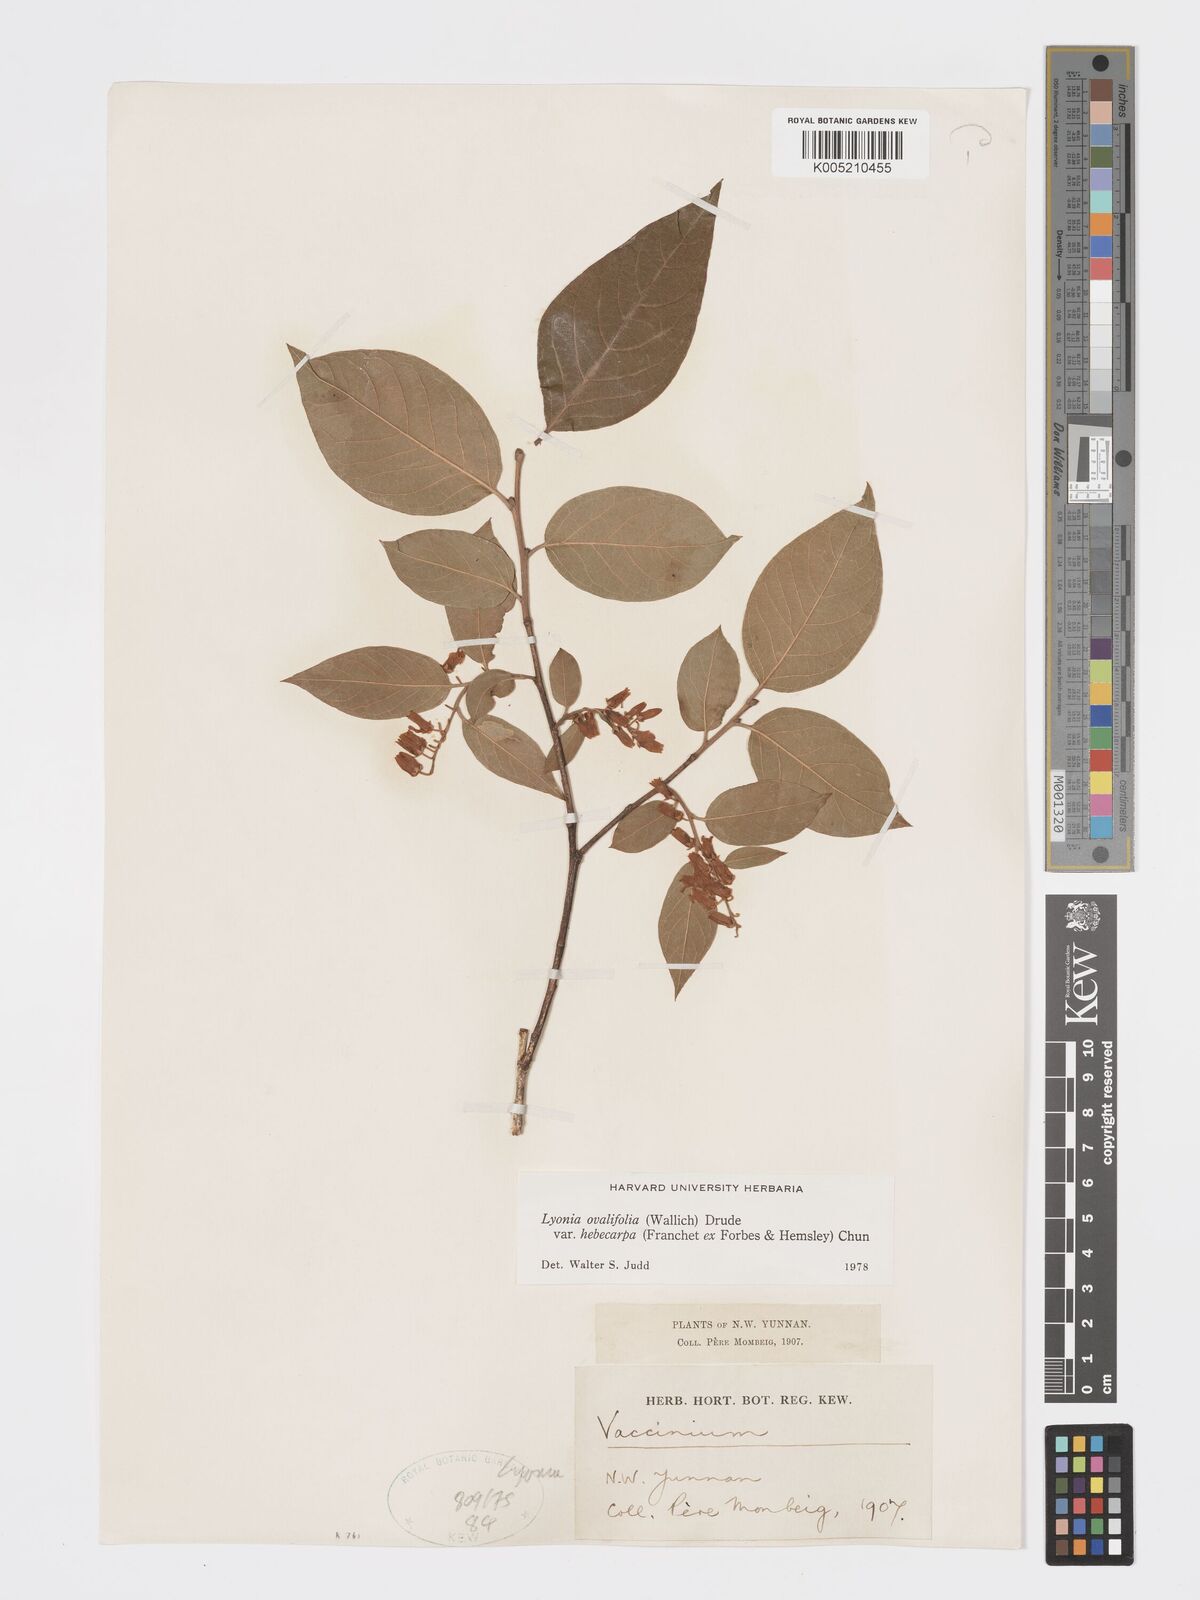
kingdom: Plantae
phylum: Tracheophyta
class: Magnoliopsida
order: Ericales
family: Ericaceae
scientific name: Ericaceae
